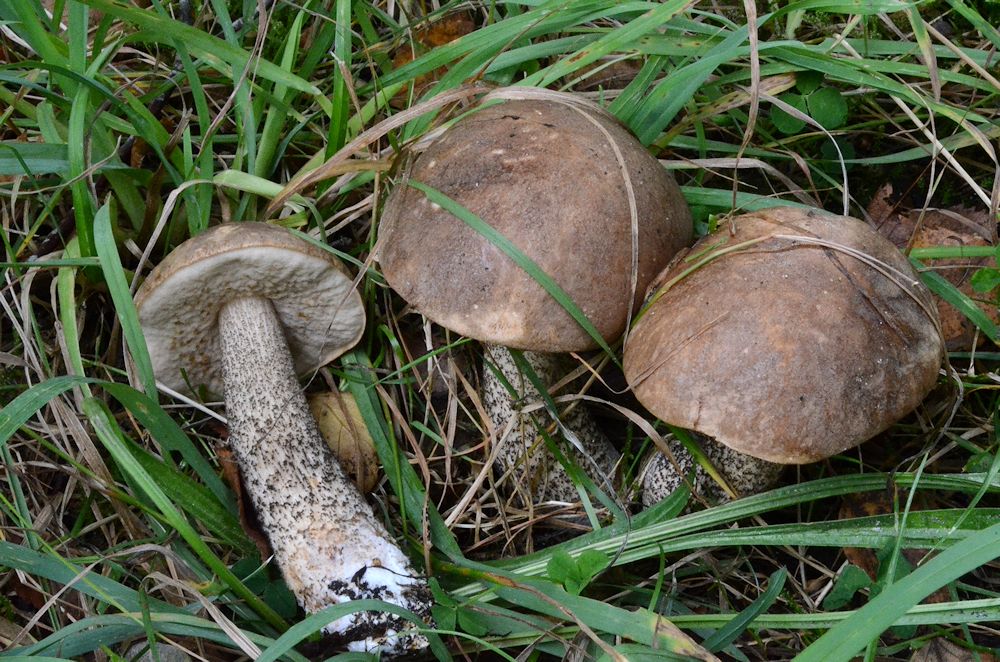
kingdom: Fungi
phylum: Basidiomycota
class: Agaricomycetes
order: Boletales
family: Boletaceae
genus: Leccinum
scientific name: Leccinum scabrum
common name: brun skælrørhat
